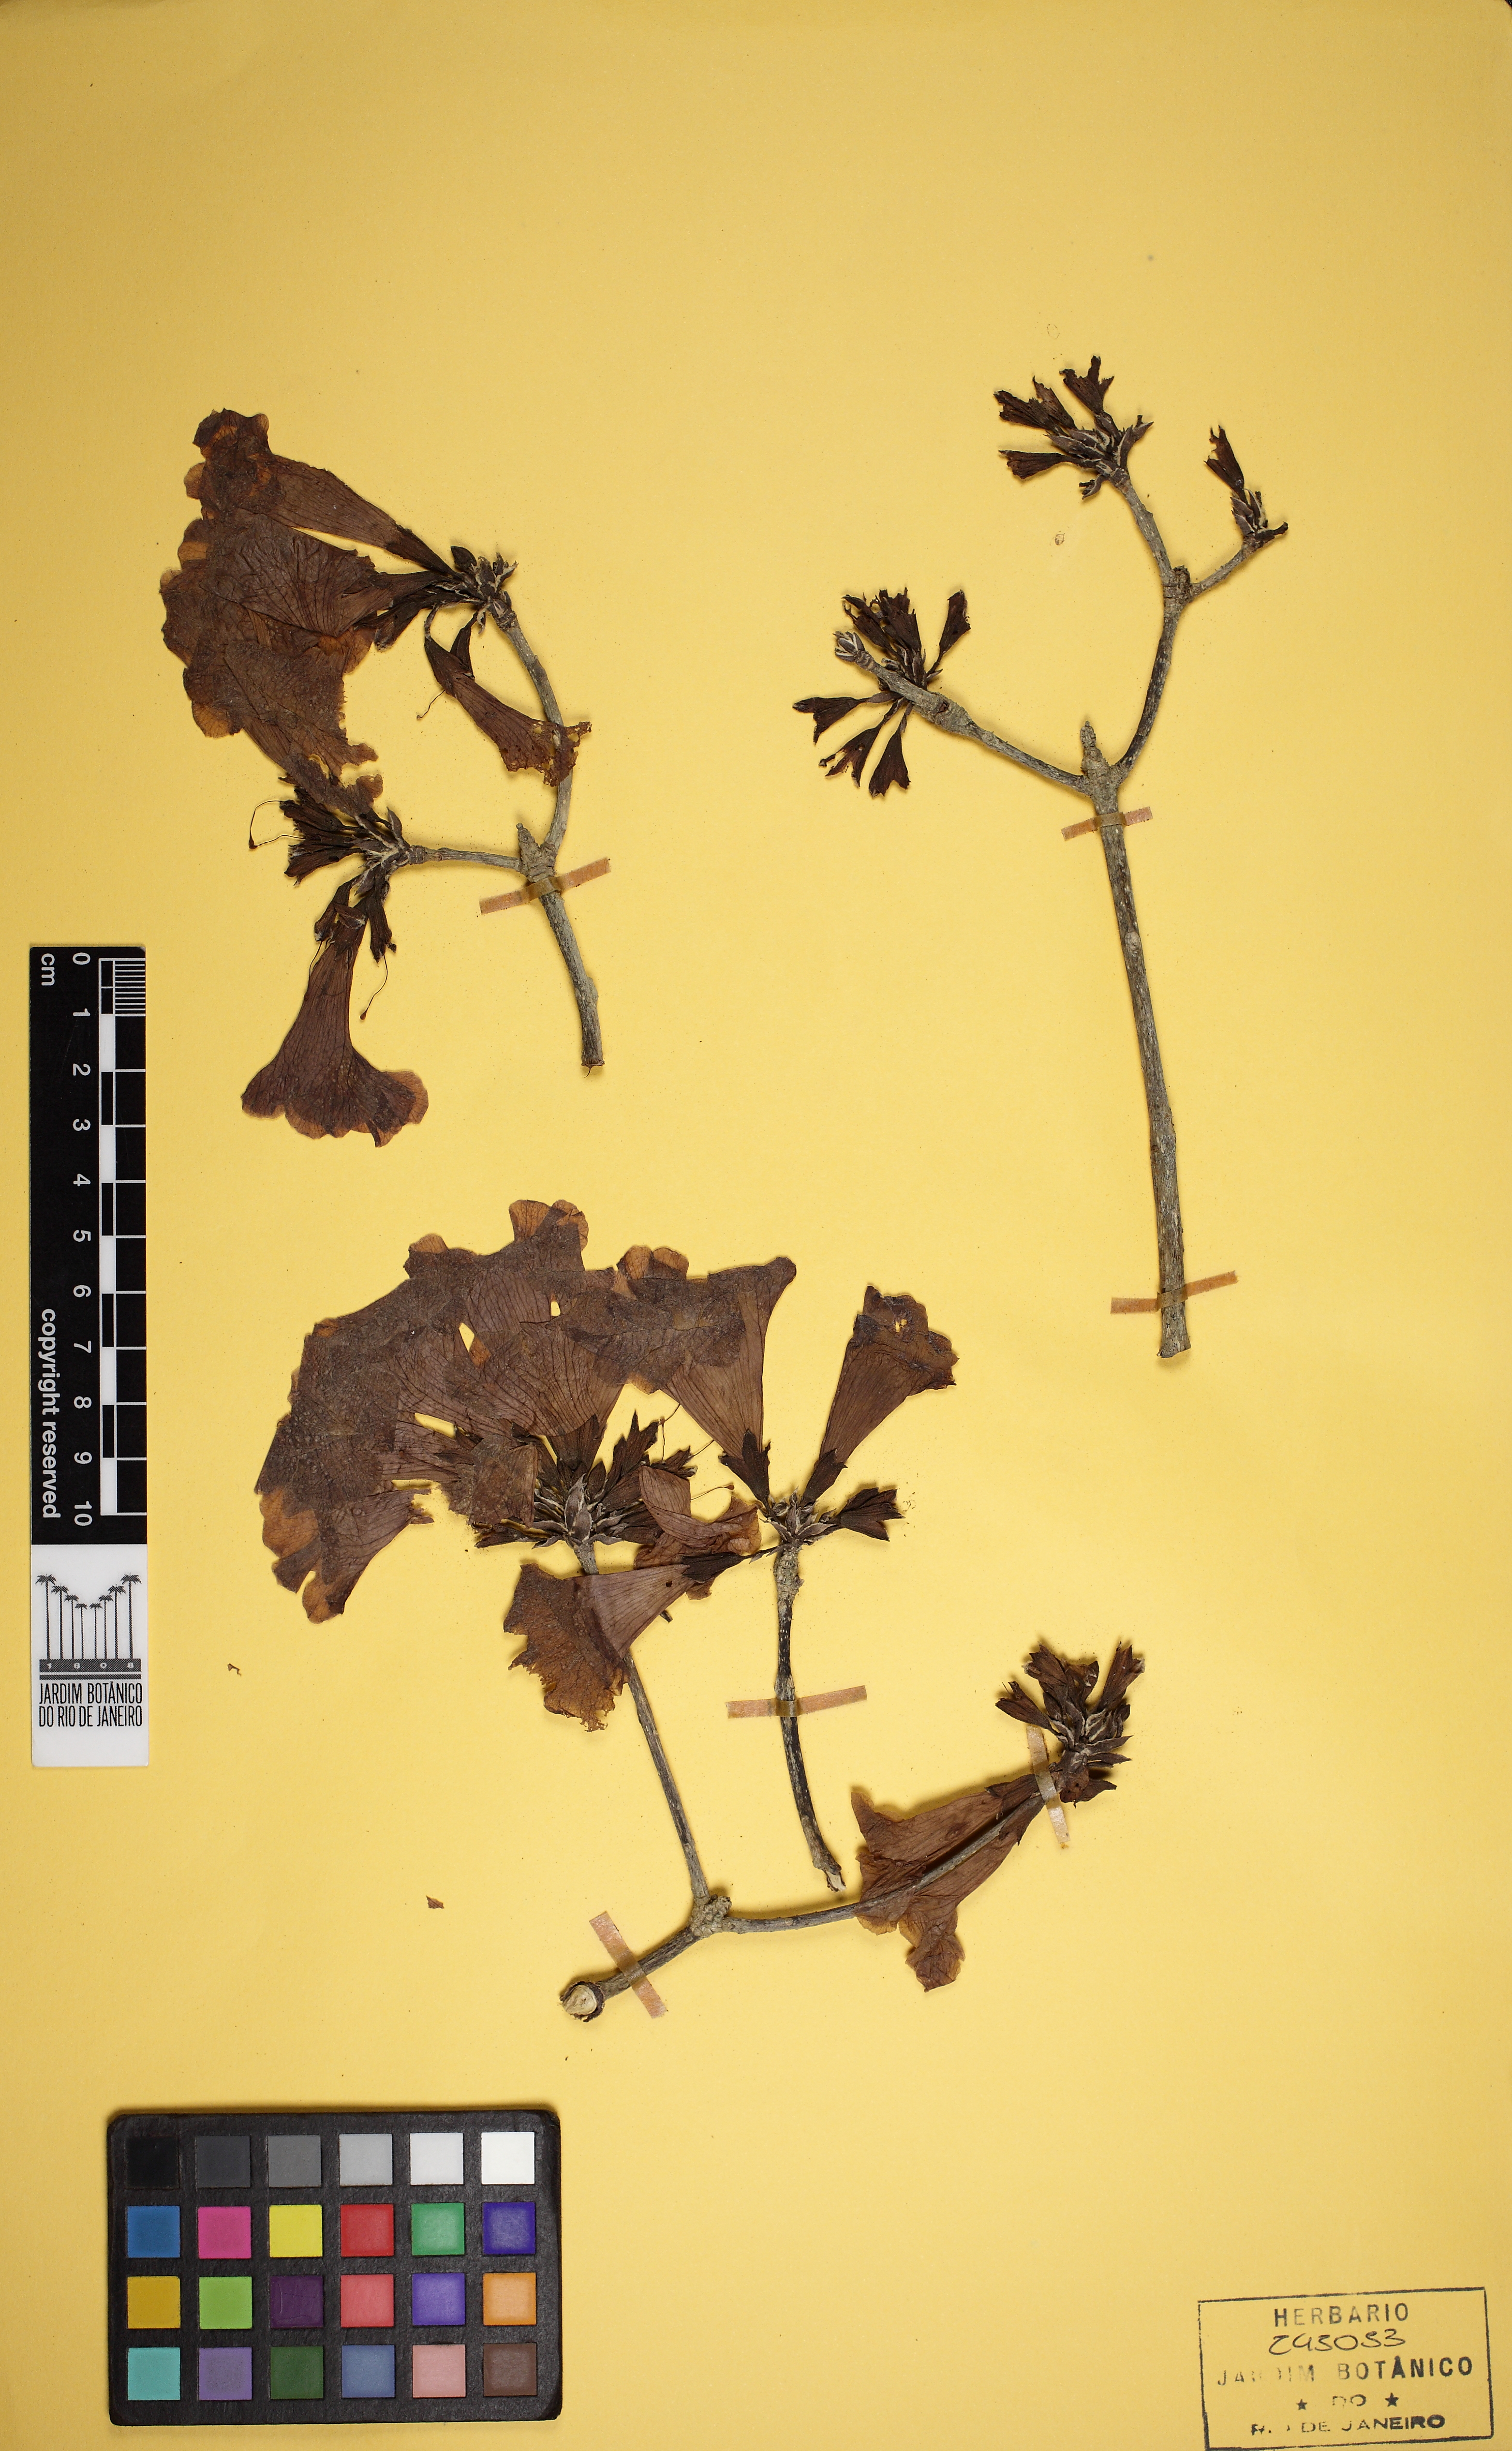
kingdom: Plantae
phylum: Tracheophyta
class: Magnoliopsida
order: Lamiales
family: Bignoniaceae
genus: Tabebuia
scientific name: Tabebuia roseoalba
